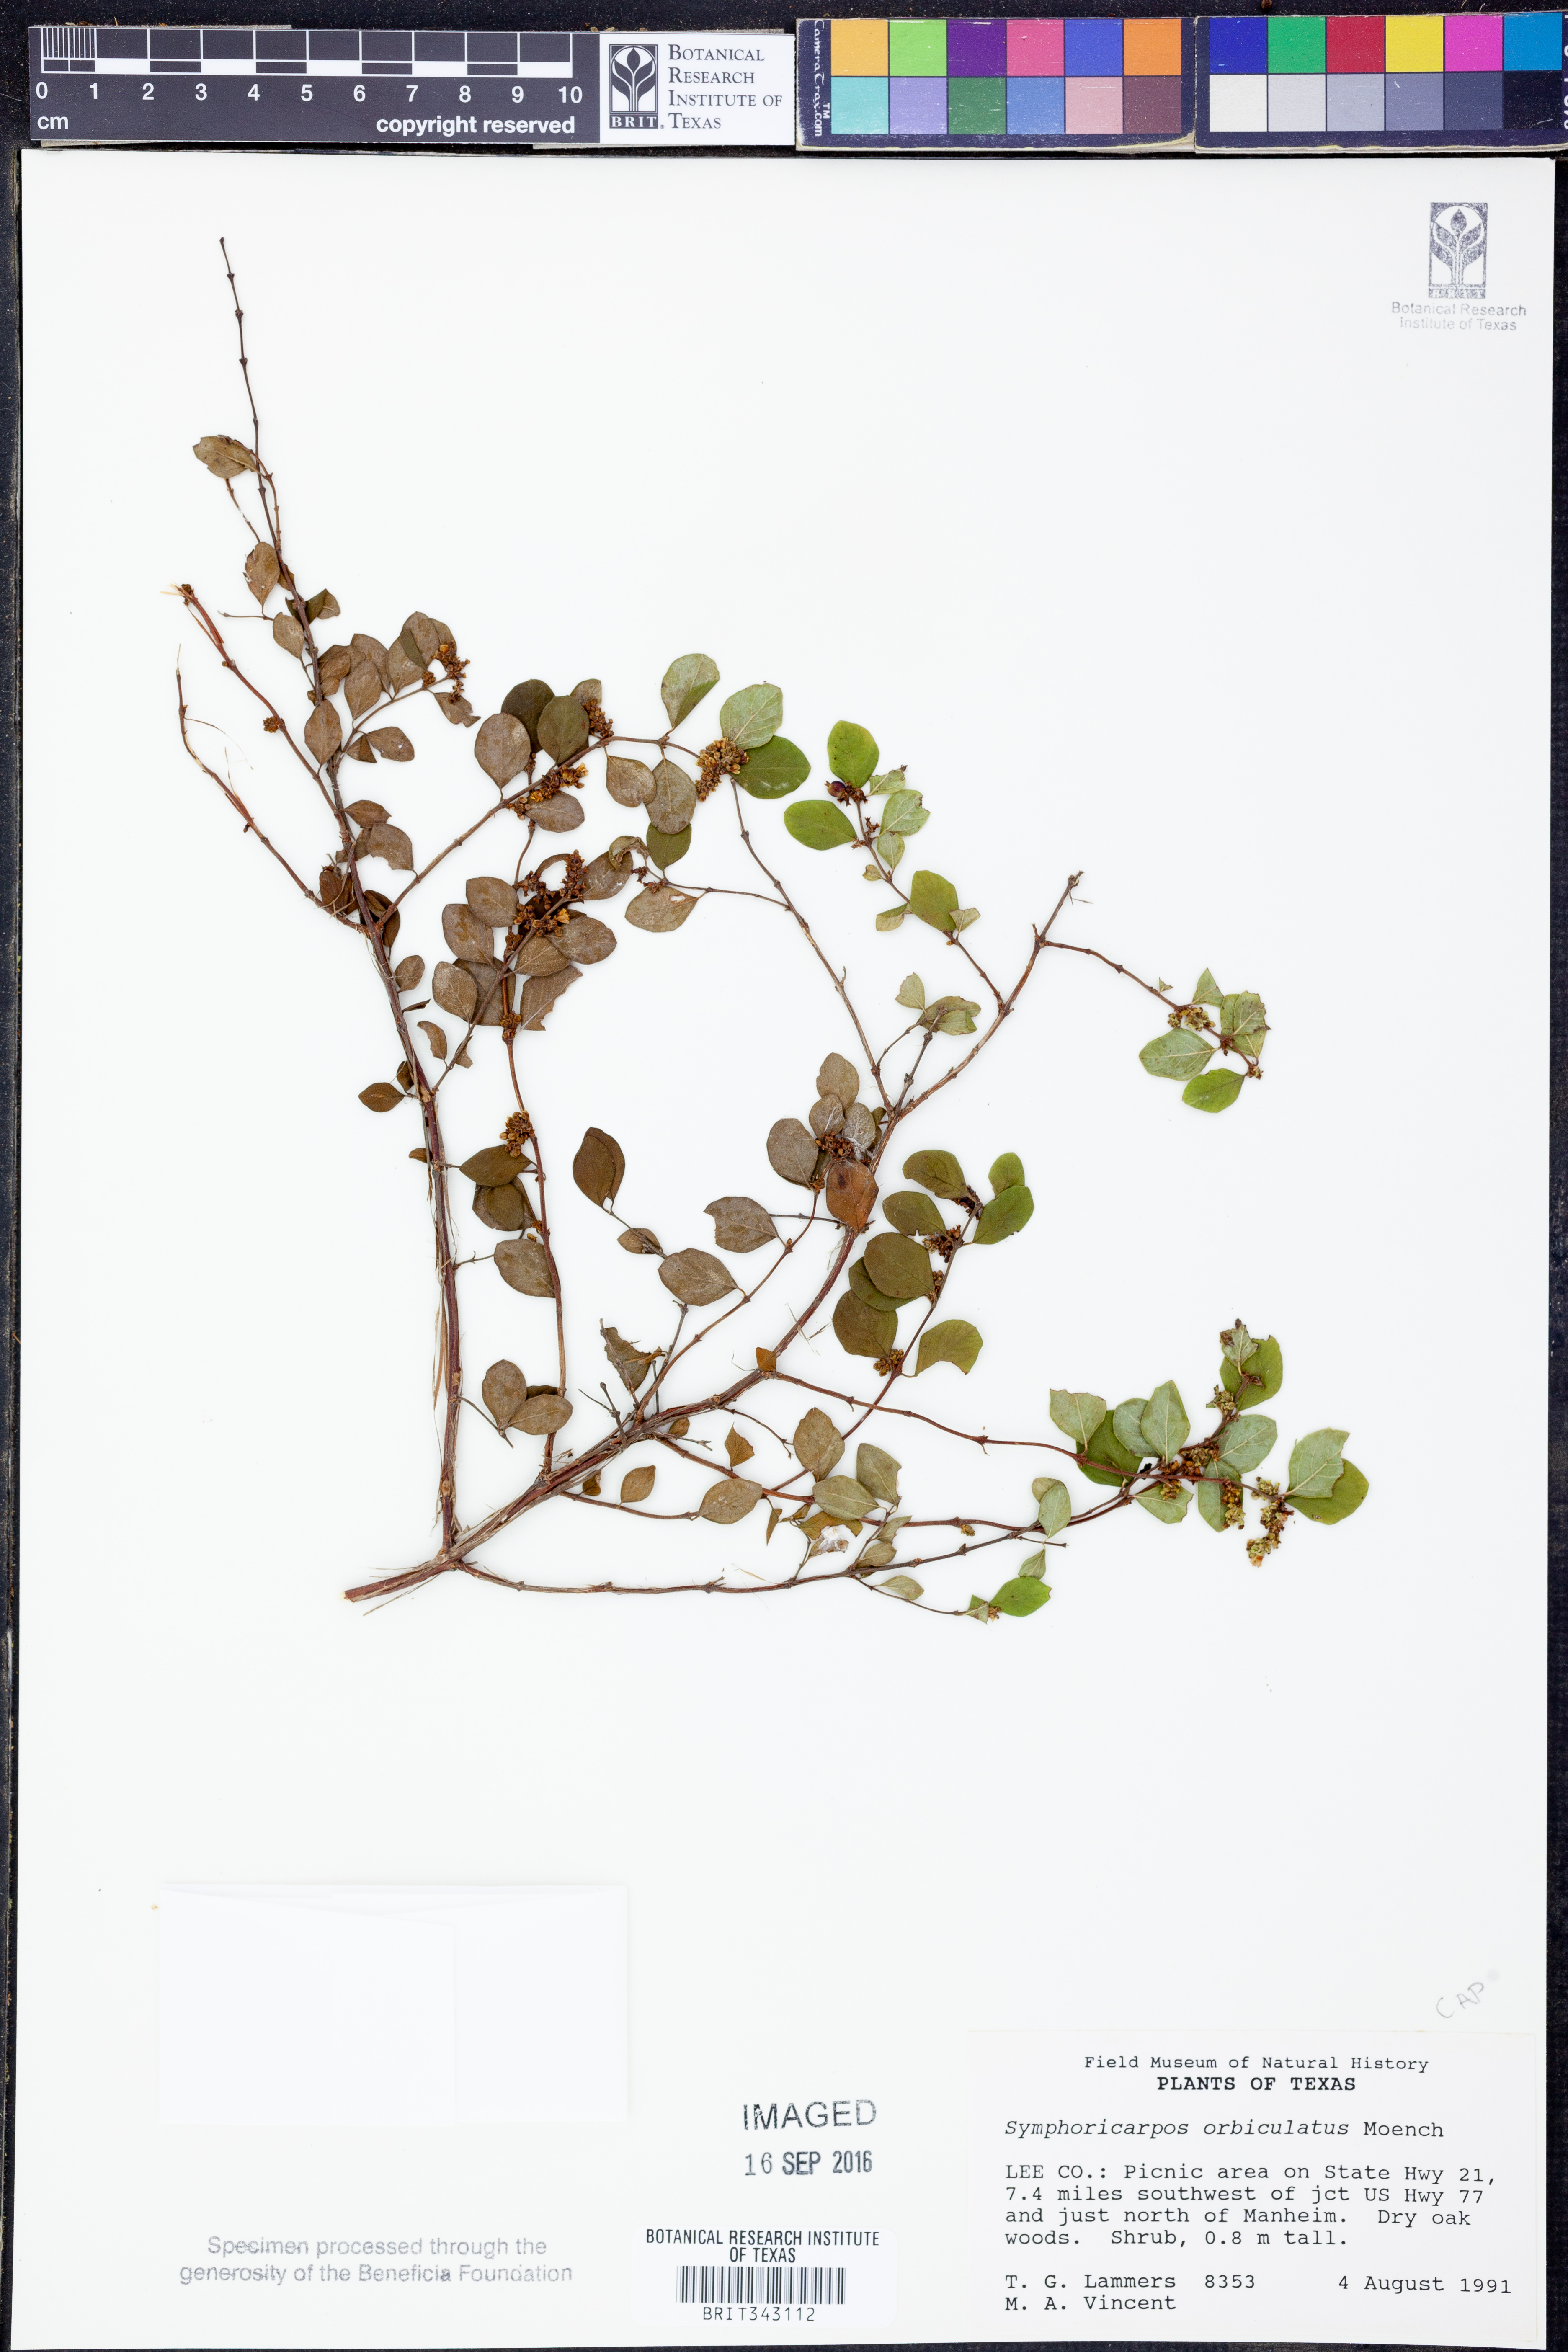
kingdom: Plantae
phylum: Tracheophyta
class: Magnoliopsida
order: Dipsacales
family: Caprifoliaceae
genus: Symphoricarpos
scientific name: Symphoricarpos orbiculatus
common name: Coralberry
